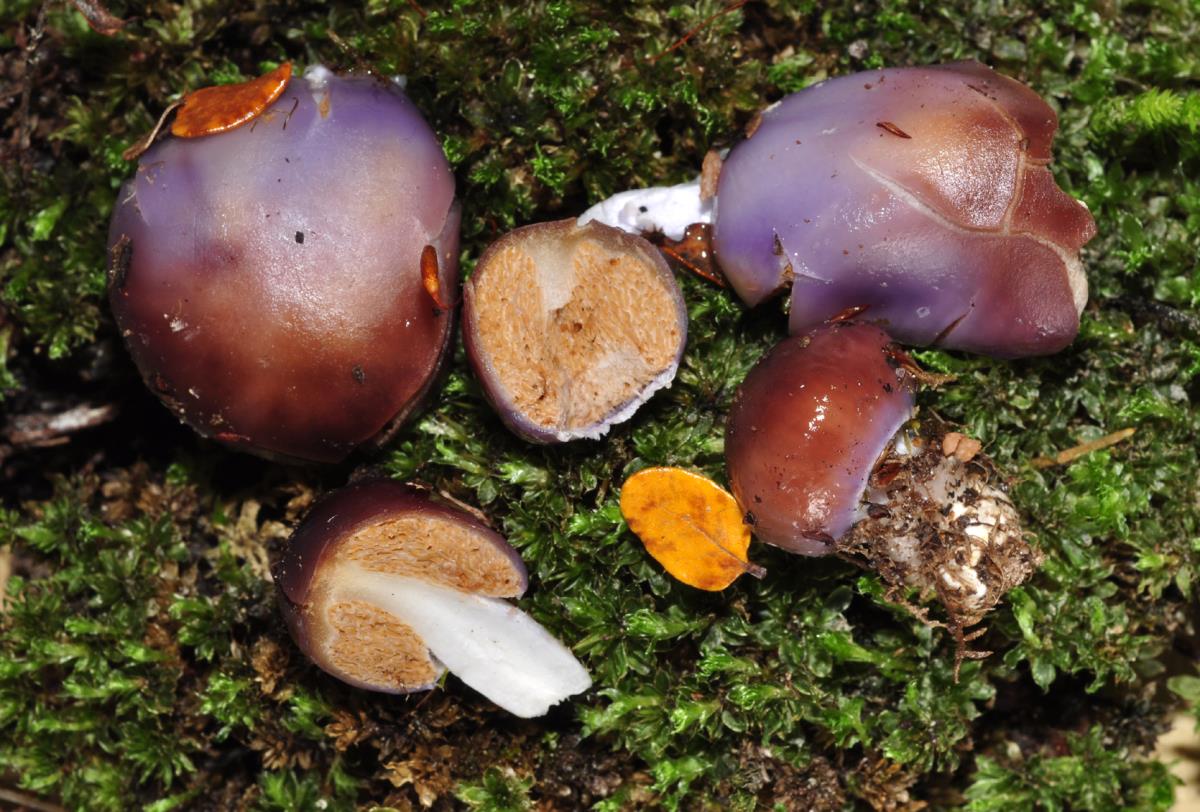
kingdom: Fungi
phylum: Basidiomycota
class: Agaricomycetes
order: Agaricales
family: Cortinariaceae
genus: Cortinarius
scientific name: Cortinarius purpureocapitatus
